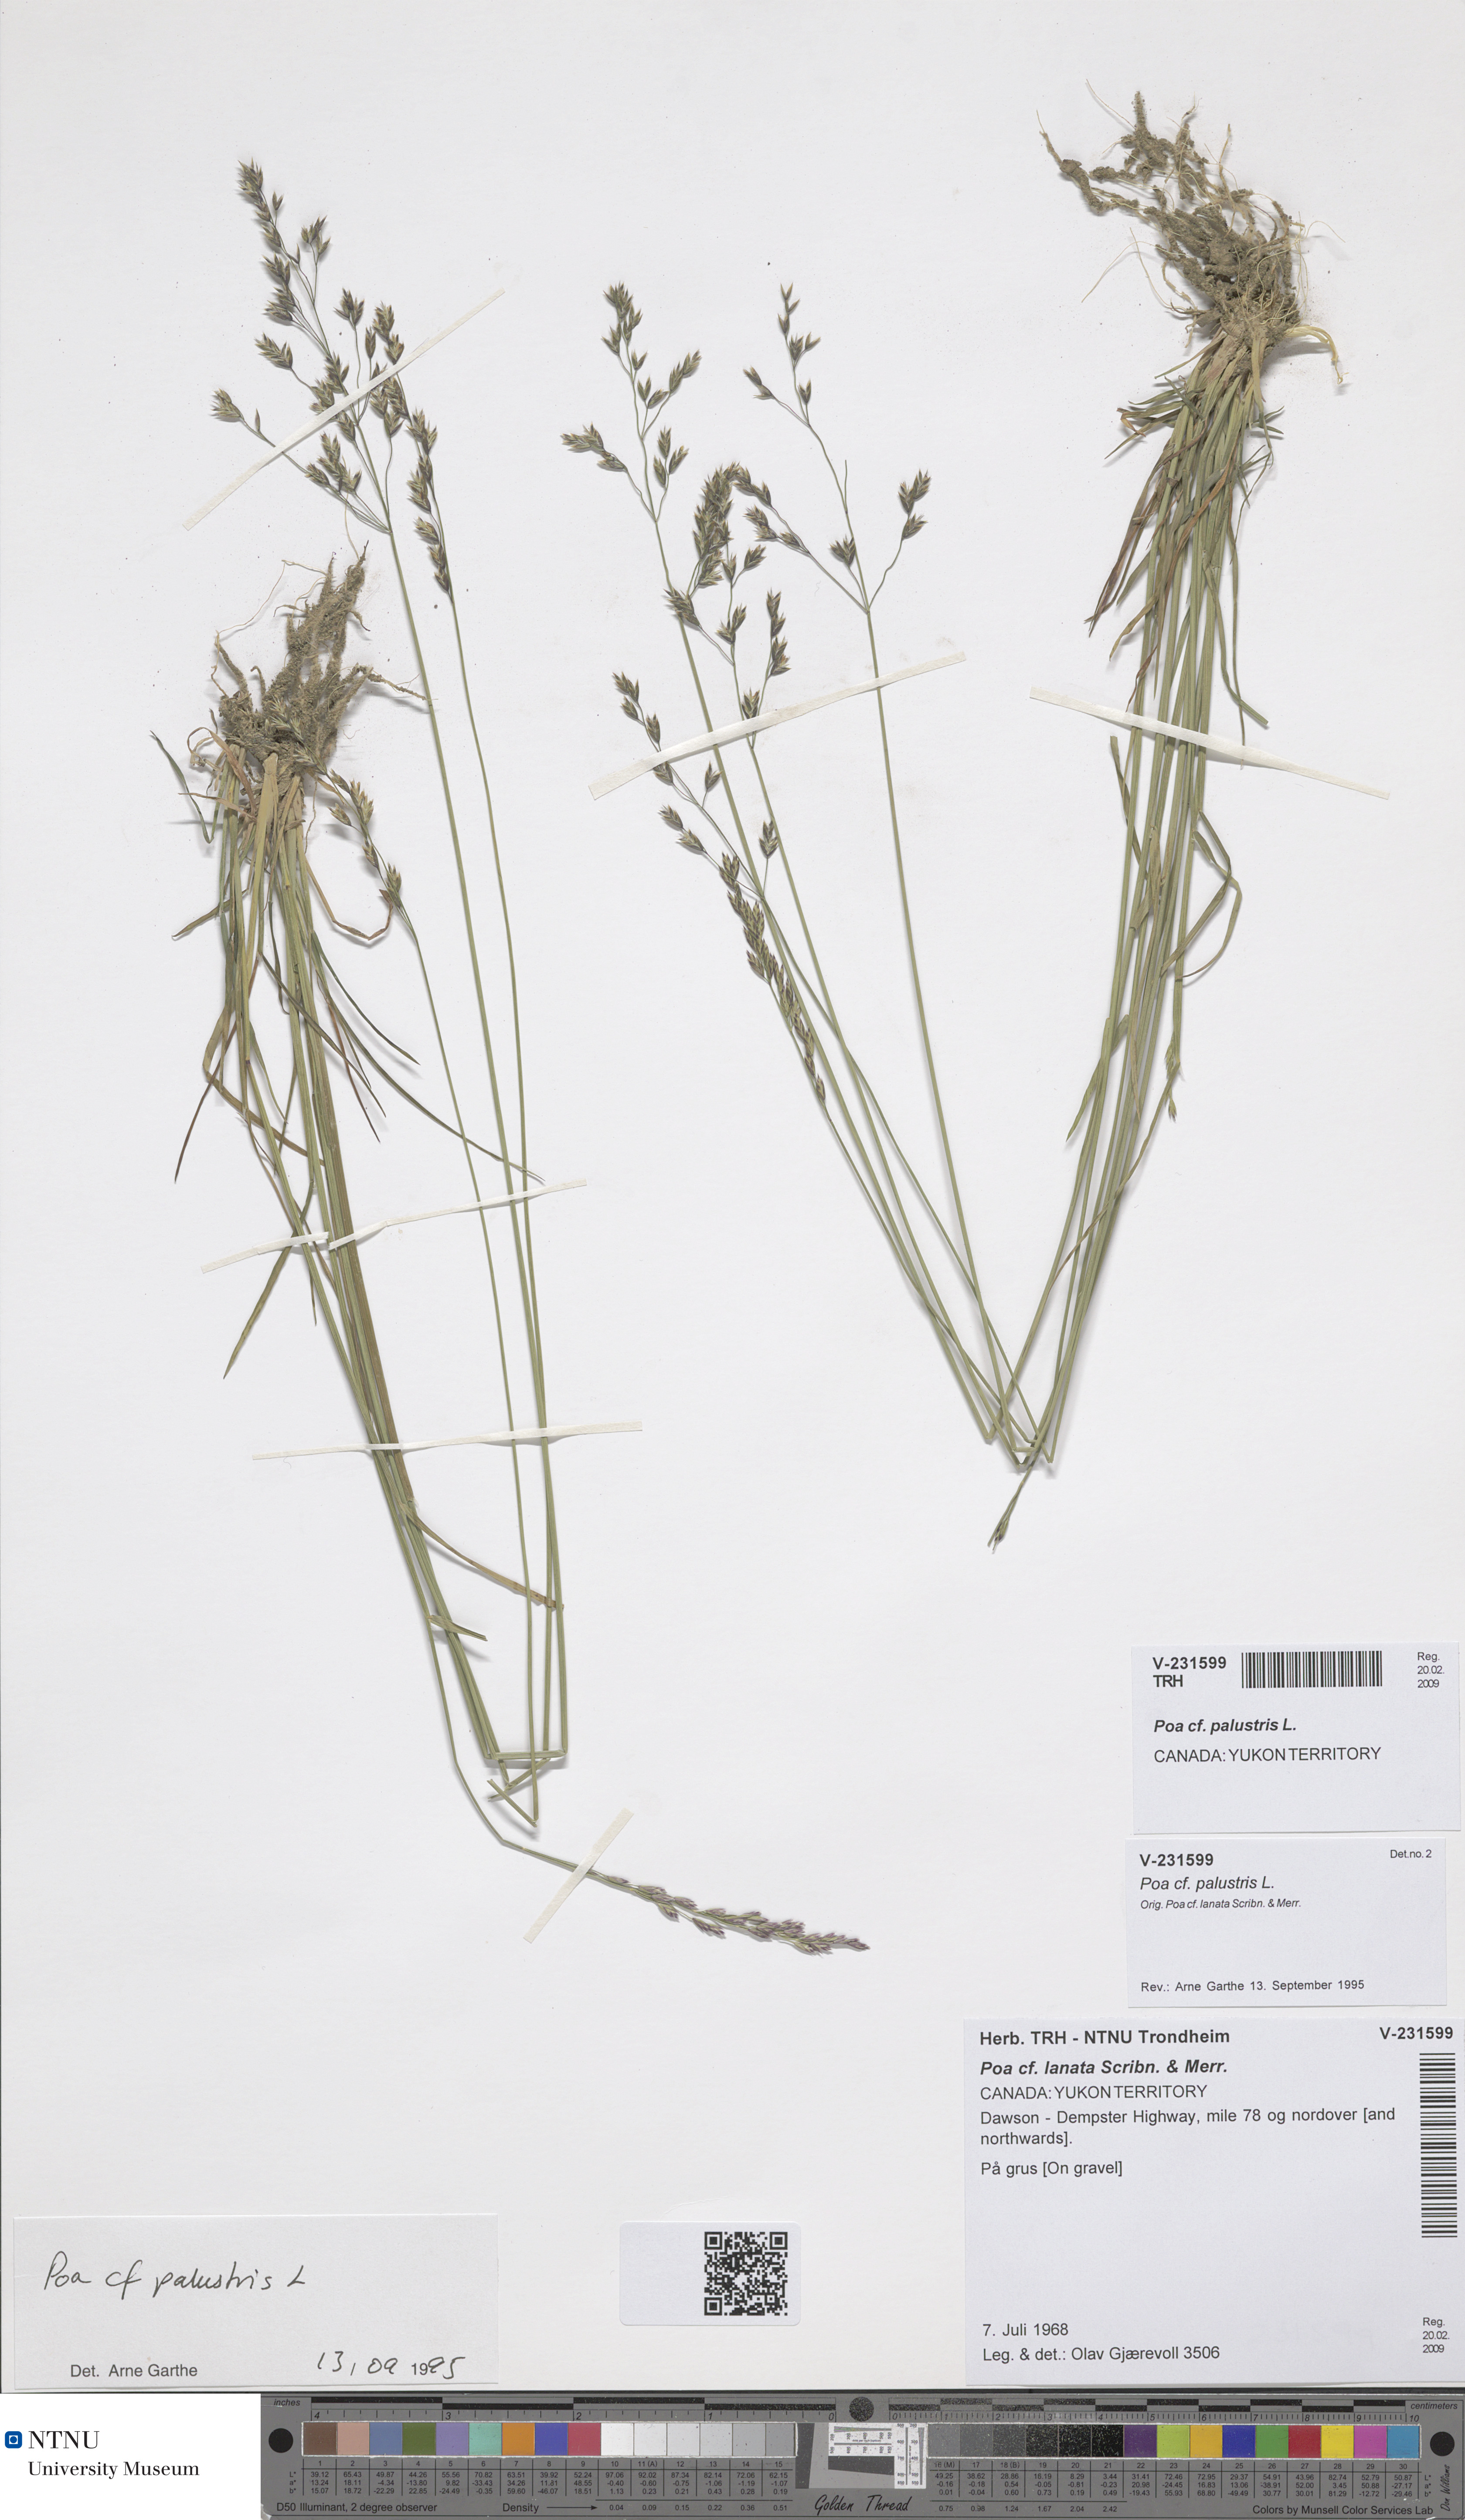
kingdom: Plantae
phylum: Tracheophyta
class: Liliopsida
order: Poales
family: Poaceae
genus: Poa
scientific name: Poa palustris
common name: Swamp meadow-grass
